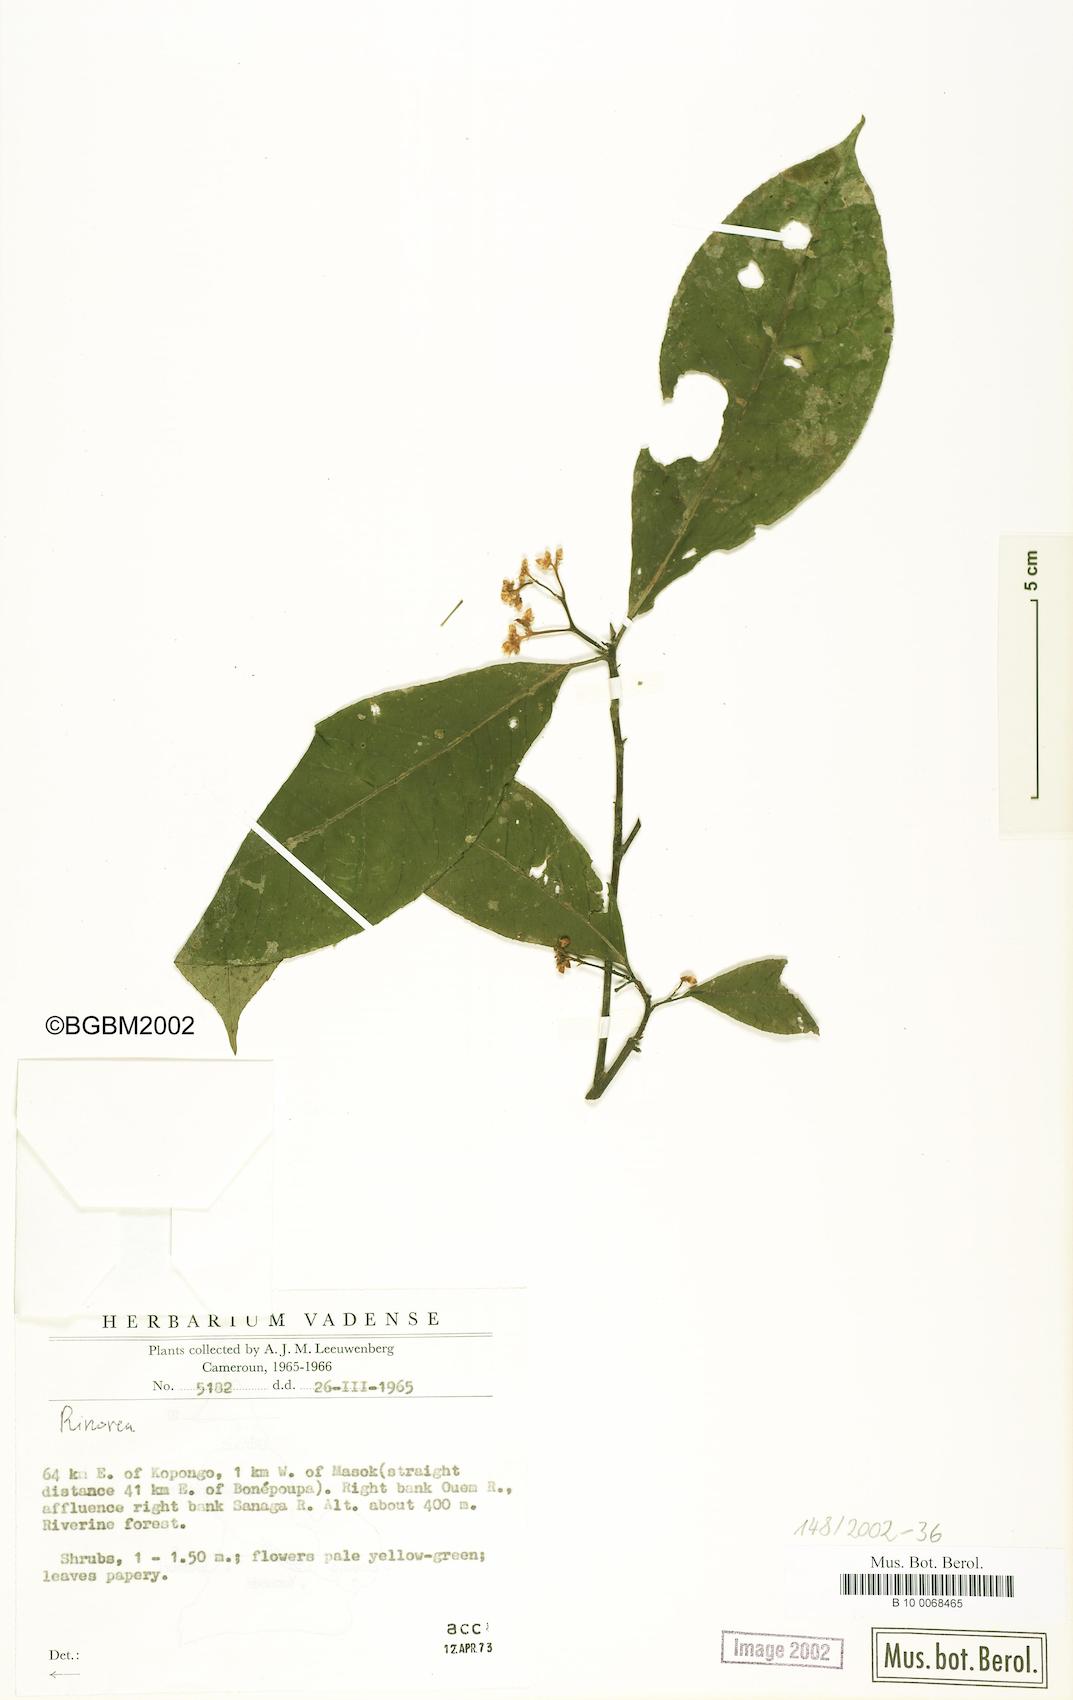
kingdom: Plantae
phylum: Tracheophyta
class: Magnoliopsida
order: Malpighiales
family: Violaceae
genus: Rinorea
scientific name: Rinorea
